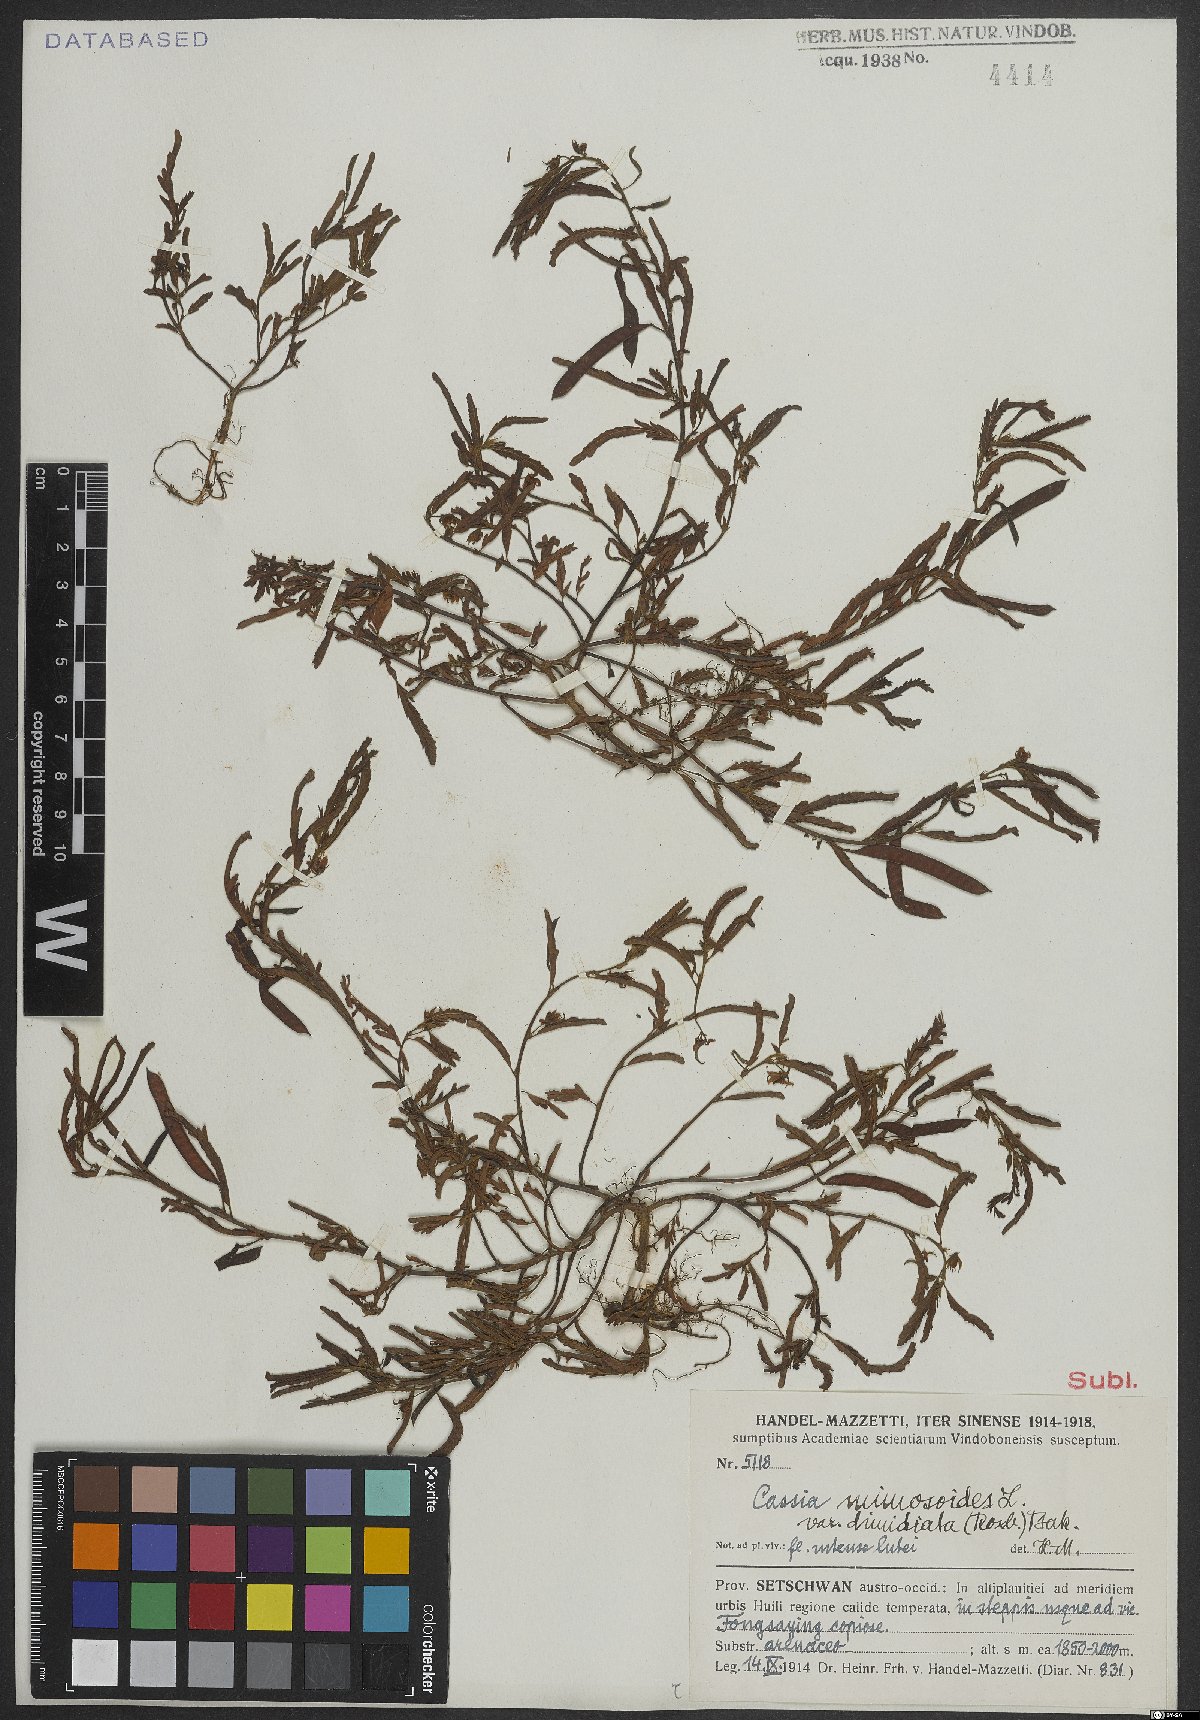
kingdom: Plantae
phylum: Tracheophyta
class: Magnoliopsida
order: Fabales
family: Fabaceae
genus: Chamaecrista
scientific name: Chamaecrista nomame
